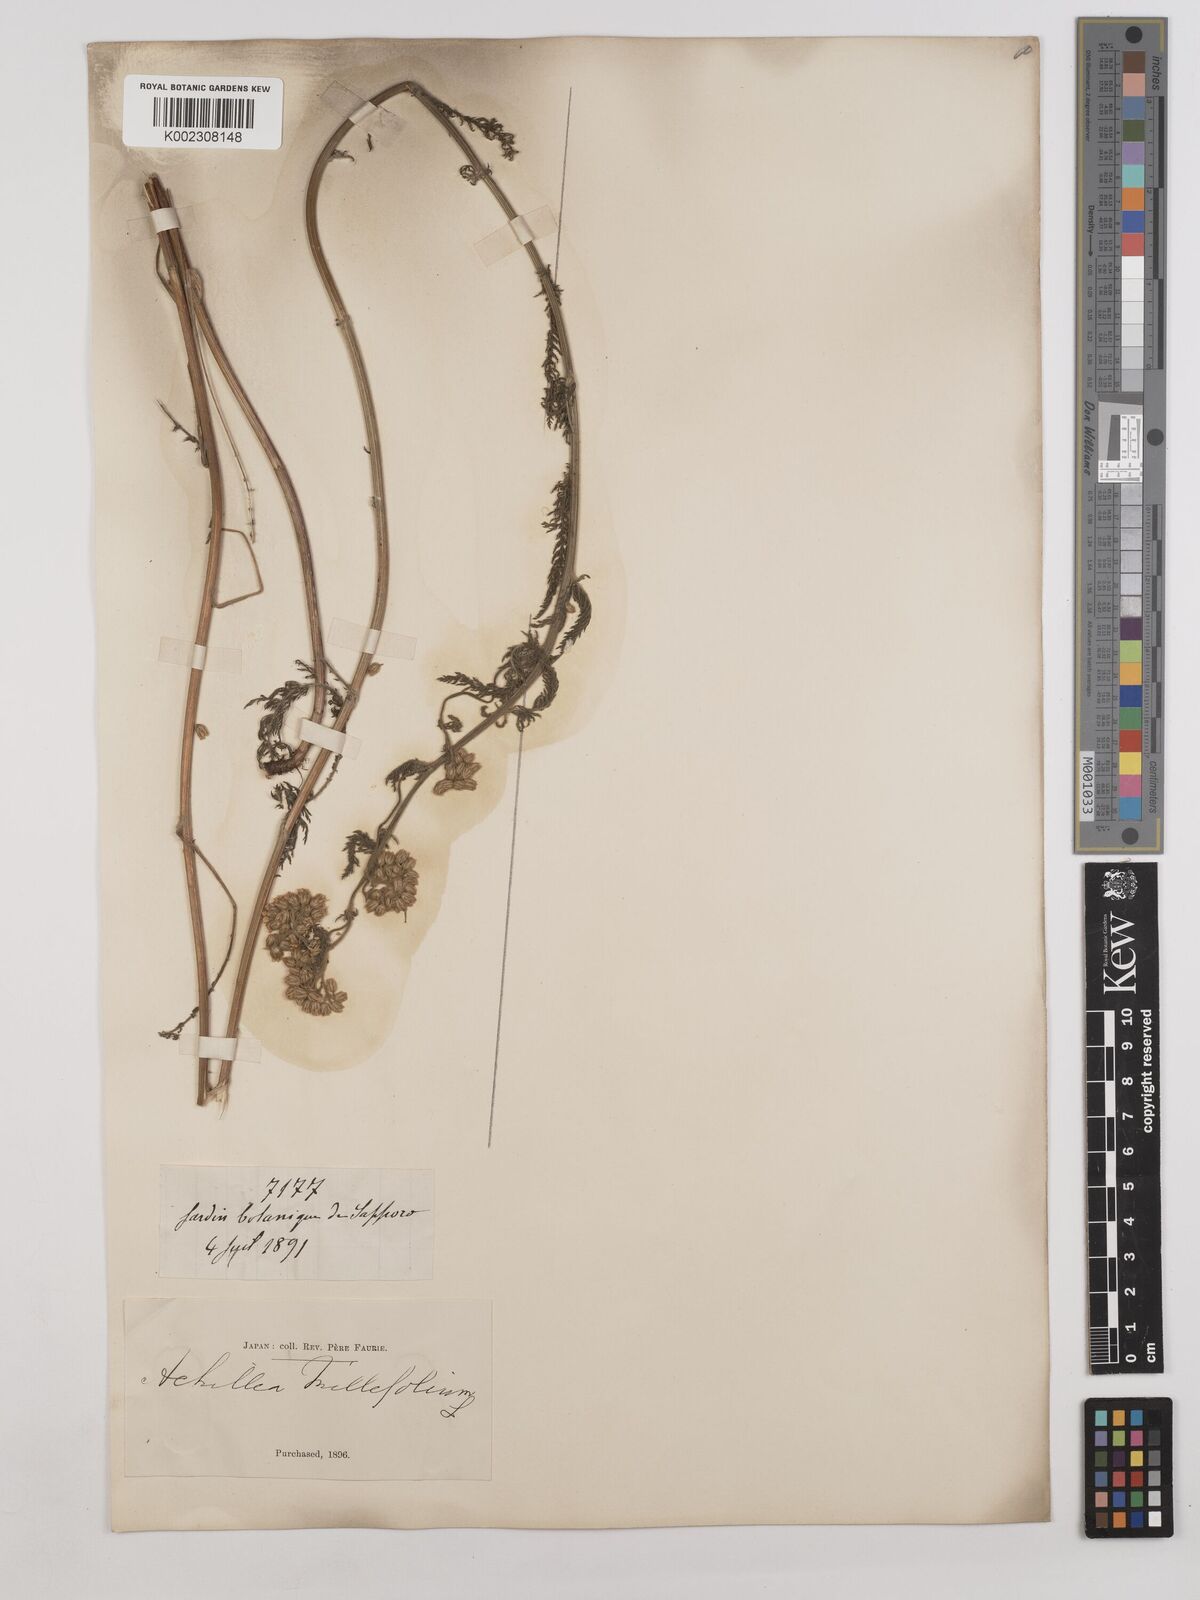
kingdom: Plantae
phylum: Tracheophyta
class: Magnoliopsida
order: Asterales
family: Asteraceae
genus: Achillea
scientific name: Achillea millefolium
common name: Yarrow
